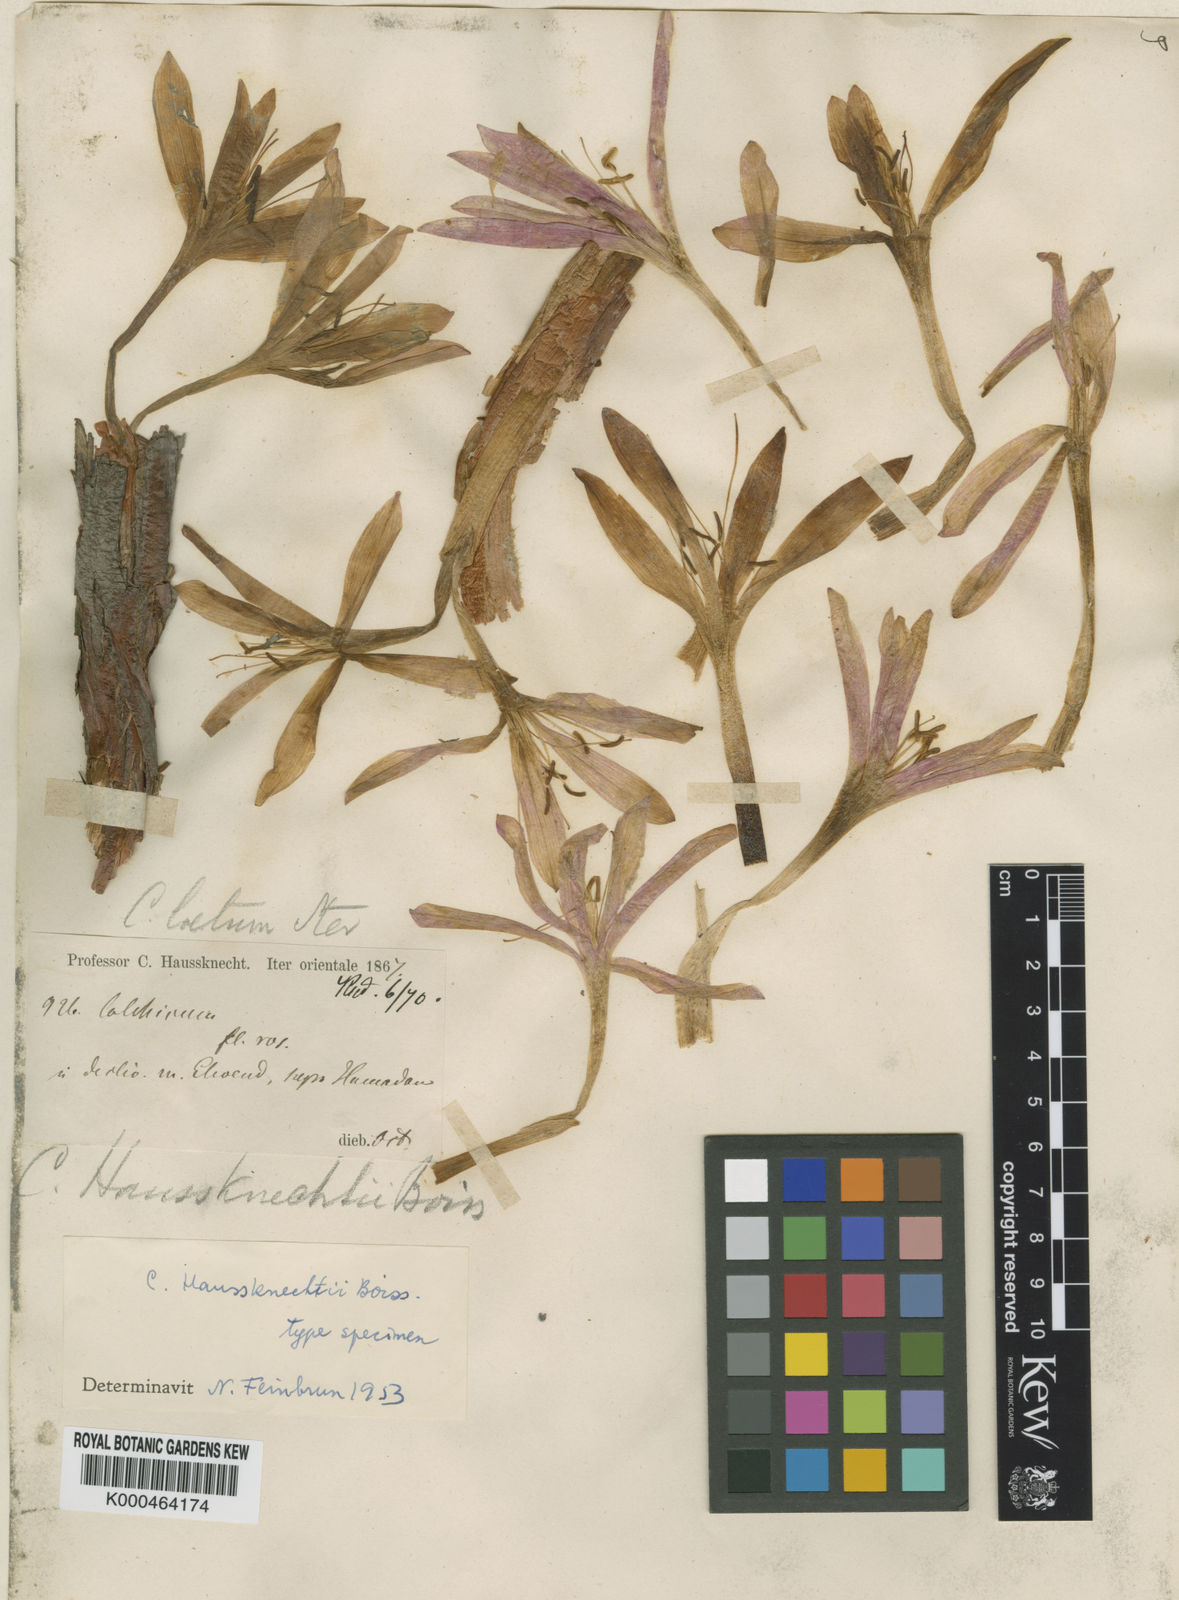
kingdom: Plantae
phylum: Tracheophyta
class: Liliopsida
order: Liliales
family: Colchicaceae
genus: Colchicum
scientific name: Colchicum persicum
